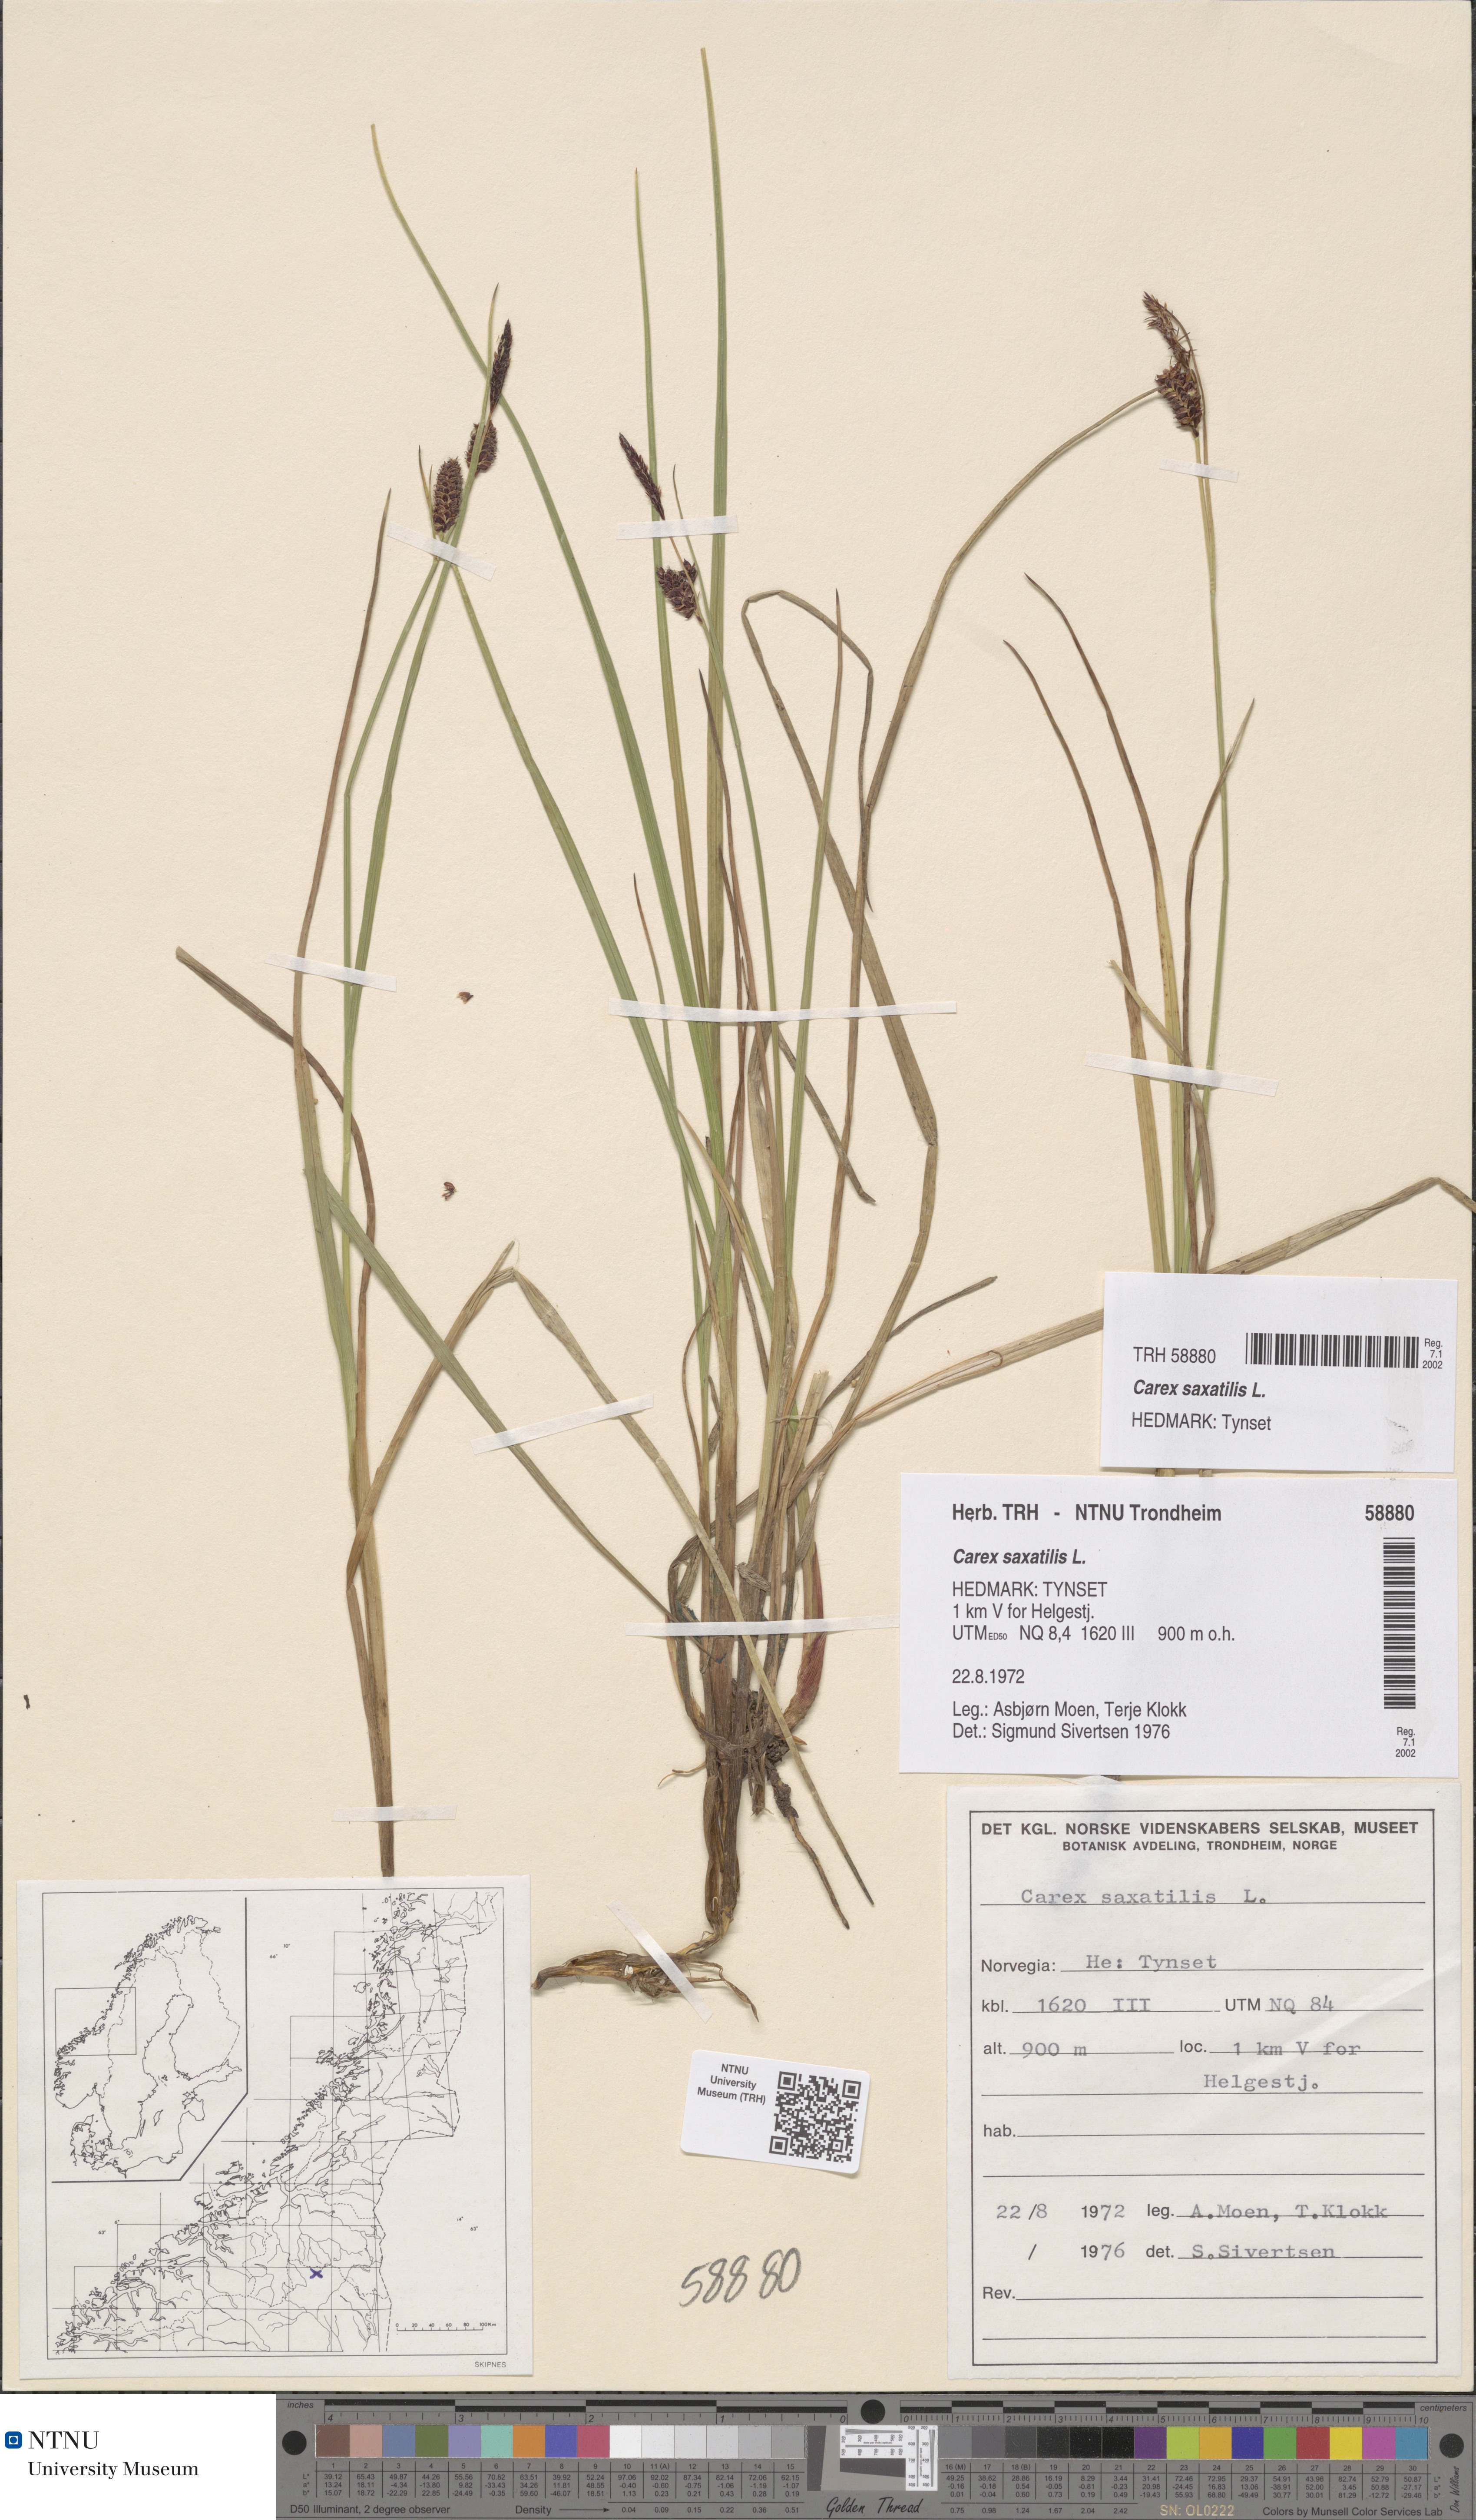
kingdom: Plantae
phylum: Tracheophyta
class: Liliopsida
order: Poales
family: Cyperaceae
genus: Carex
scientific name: Carex saxatilis
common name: Russet sedge
